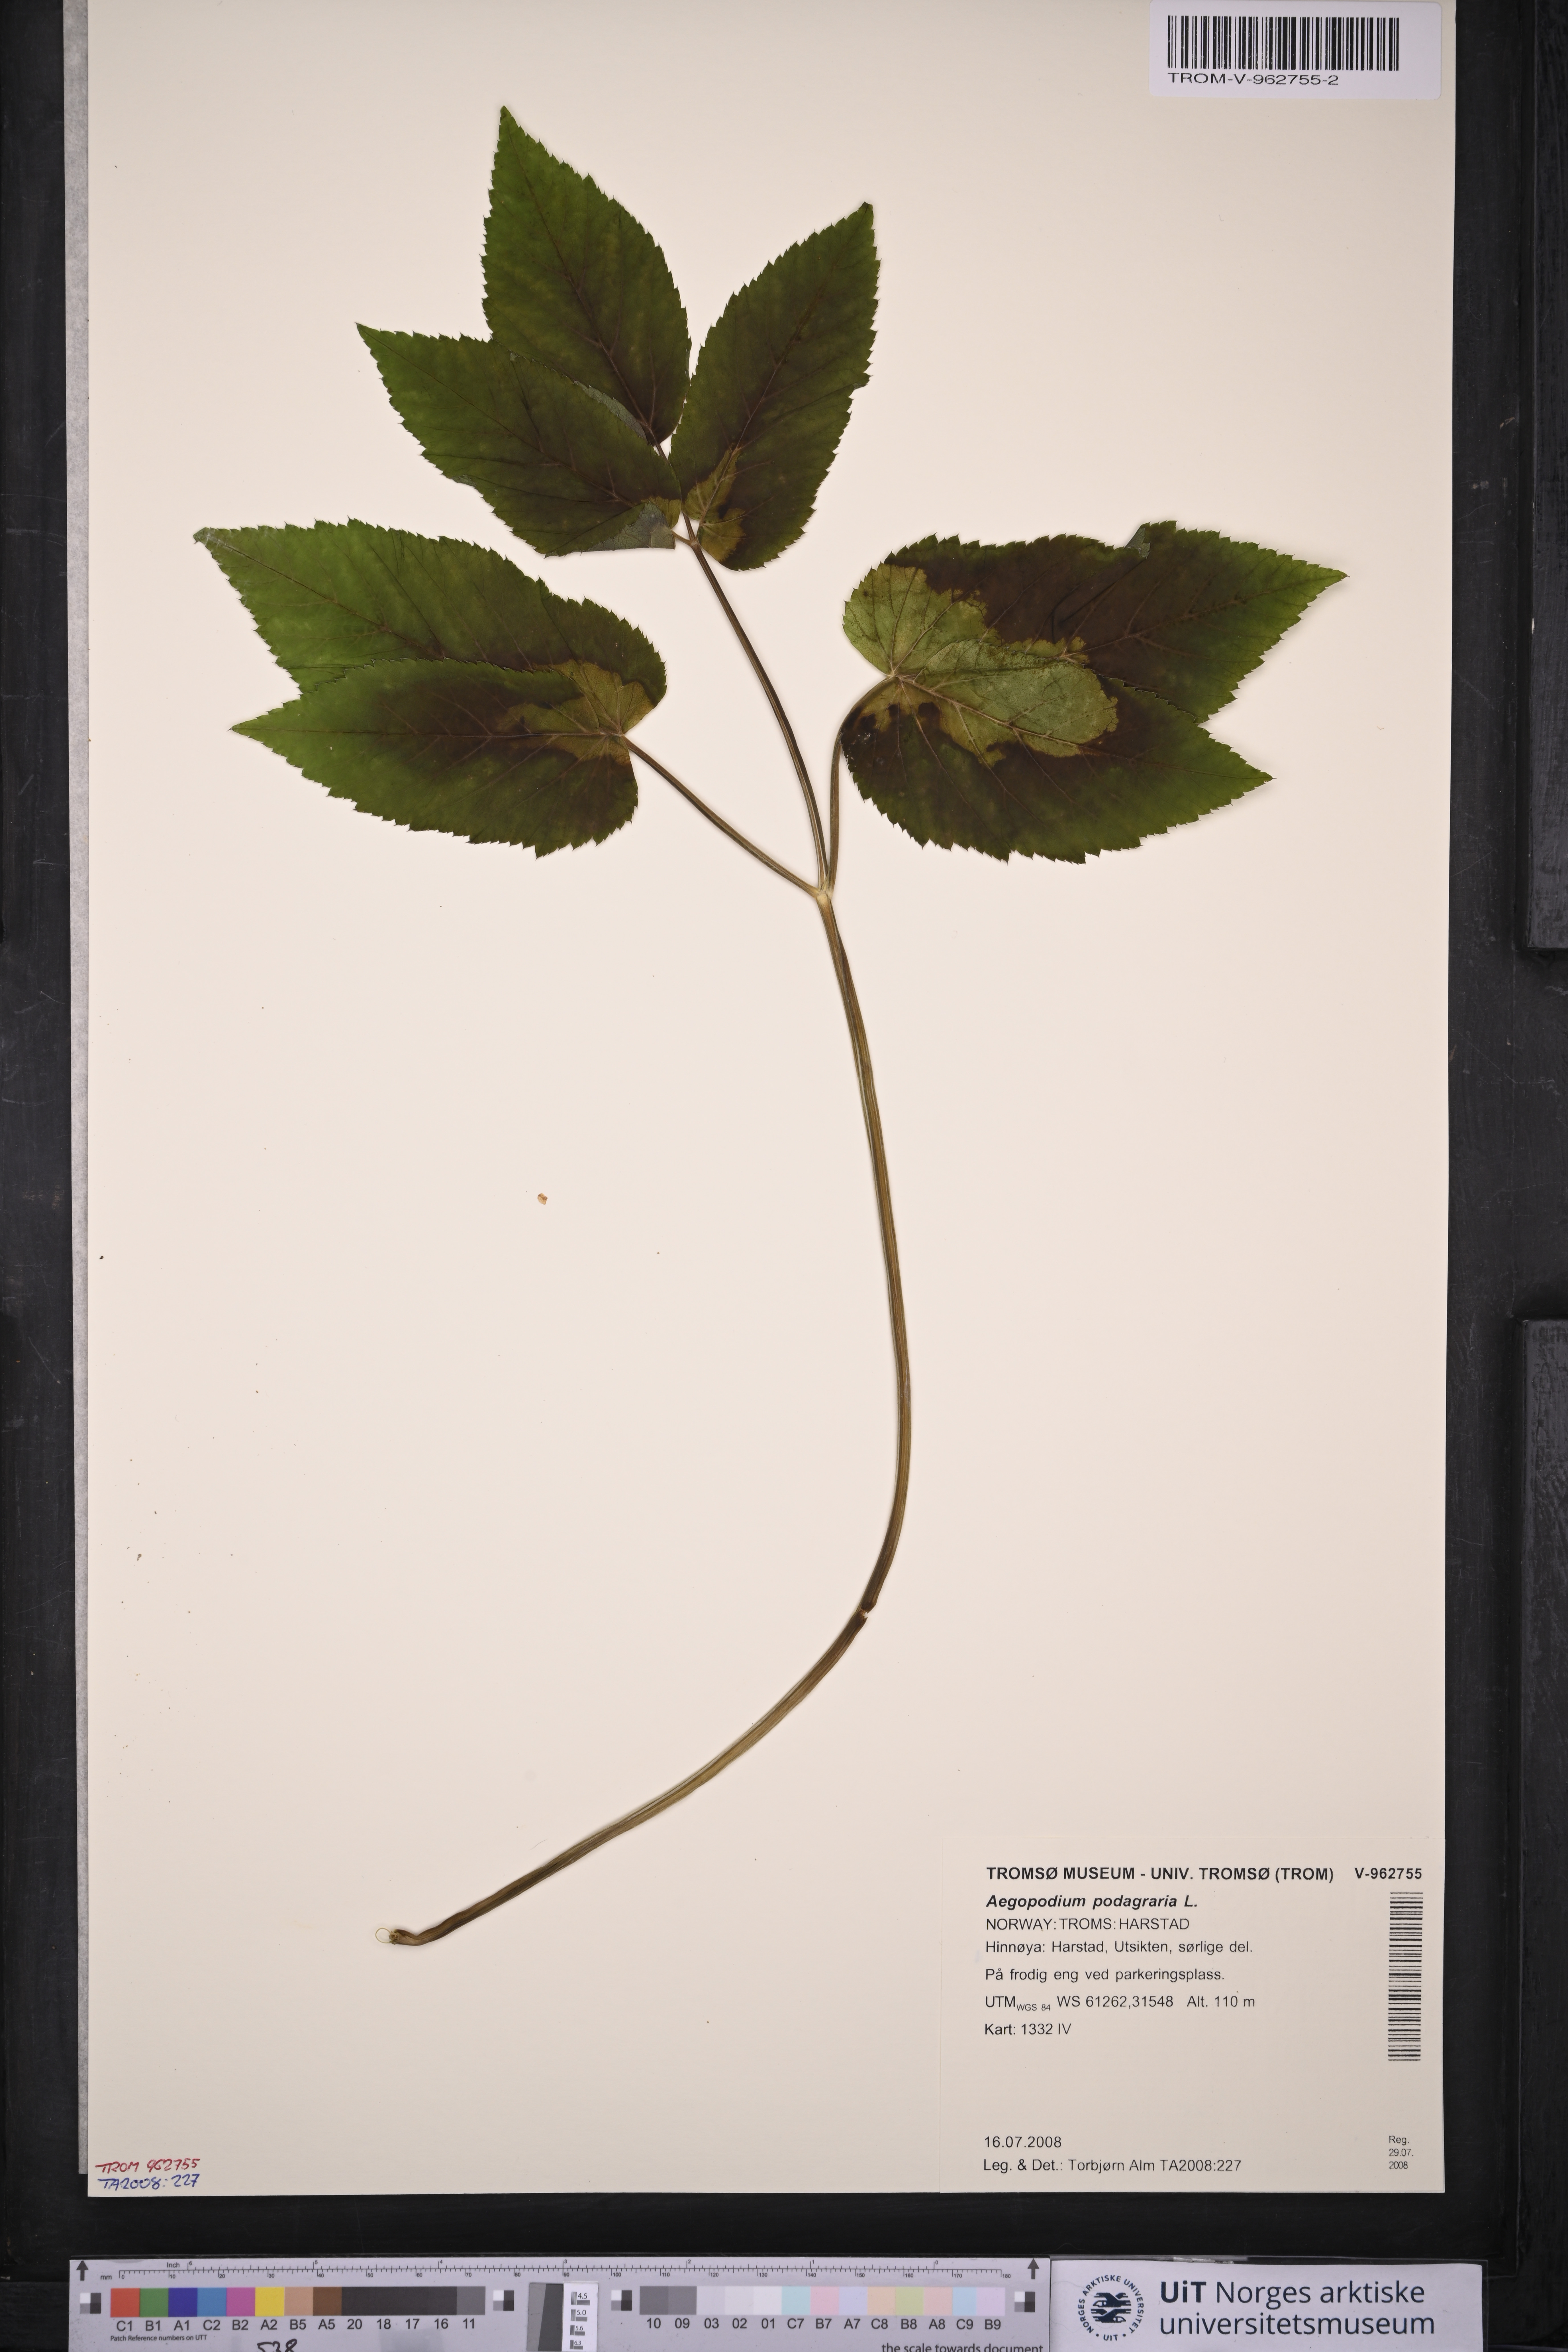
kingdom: Plantae
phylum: Tracheophyta
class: Magnoliopsida
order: Apiales
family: Apiaceae
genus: Aegopodium
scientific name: Aegopodium podagraria
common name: Ground-elder
